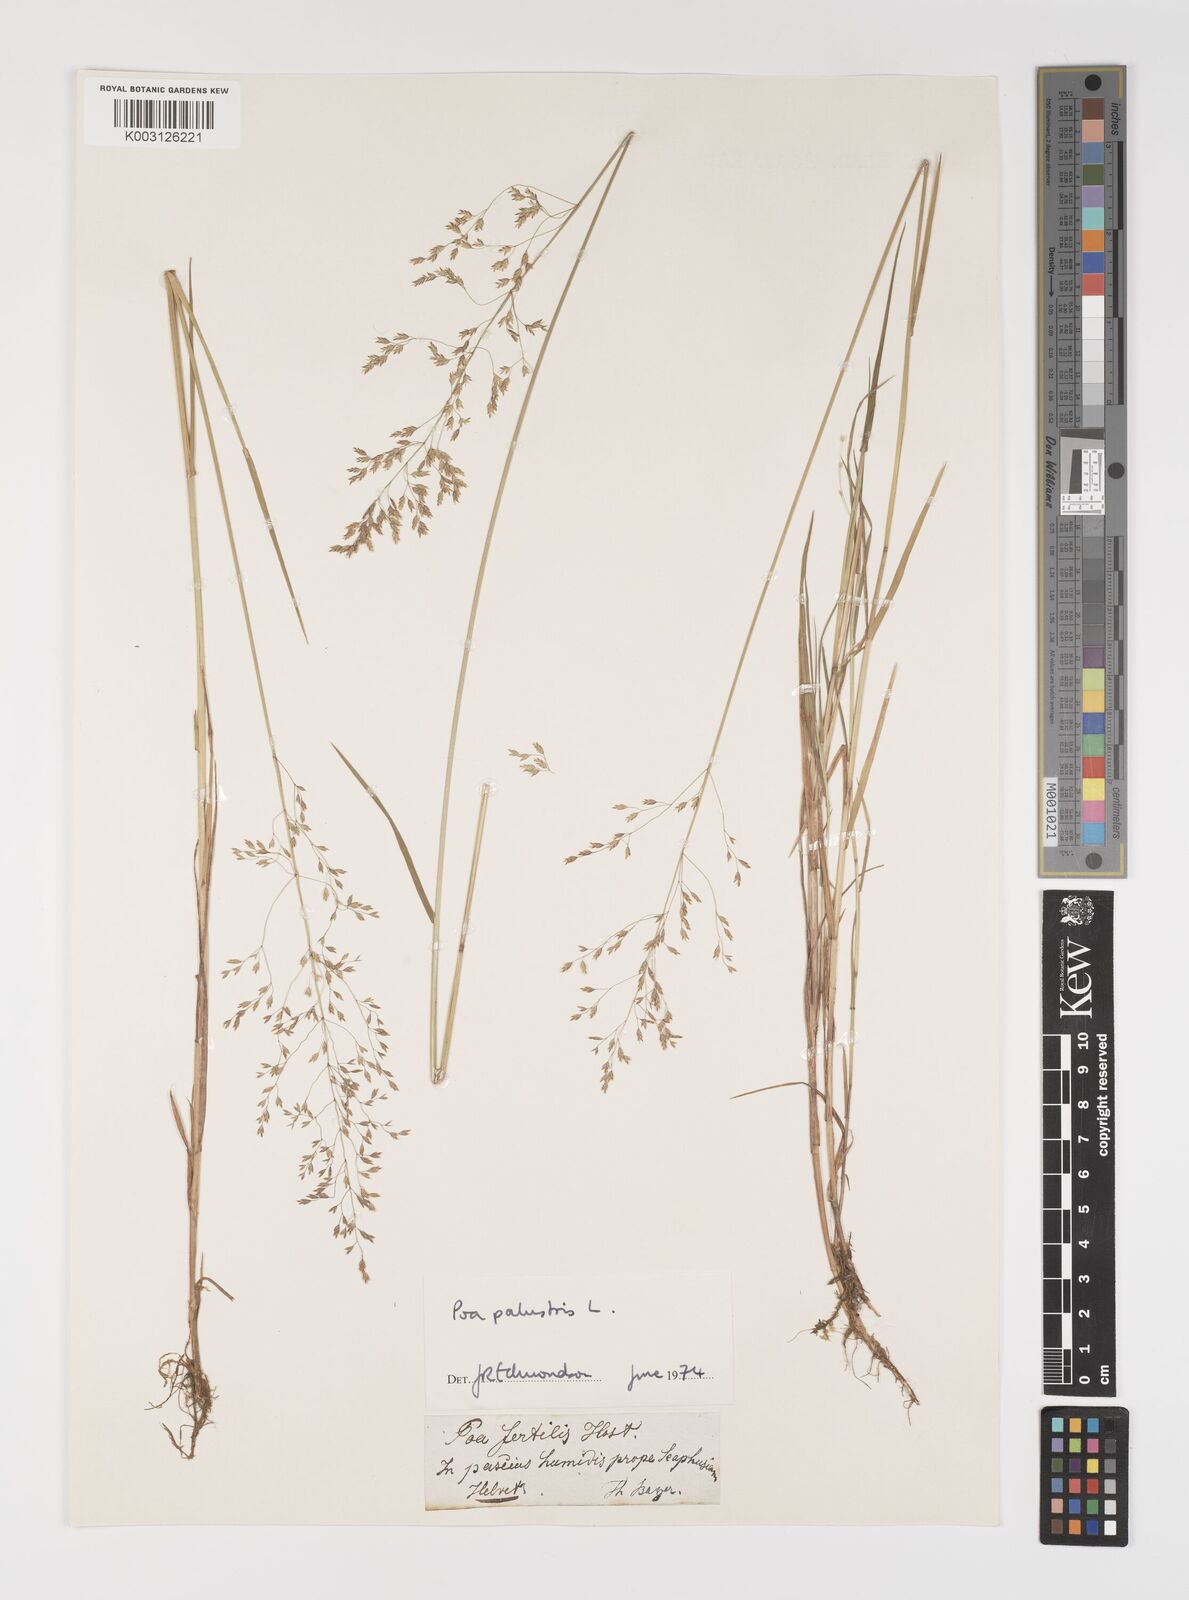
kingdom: Plantae
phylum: Tracheophyta
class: Liliopsida
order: Poales
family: Poaceae
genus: Poa
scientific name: Poa palustris
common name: Swamp meadow-grass
